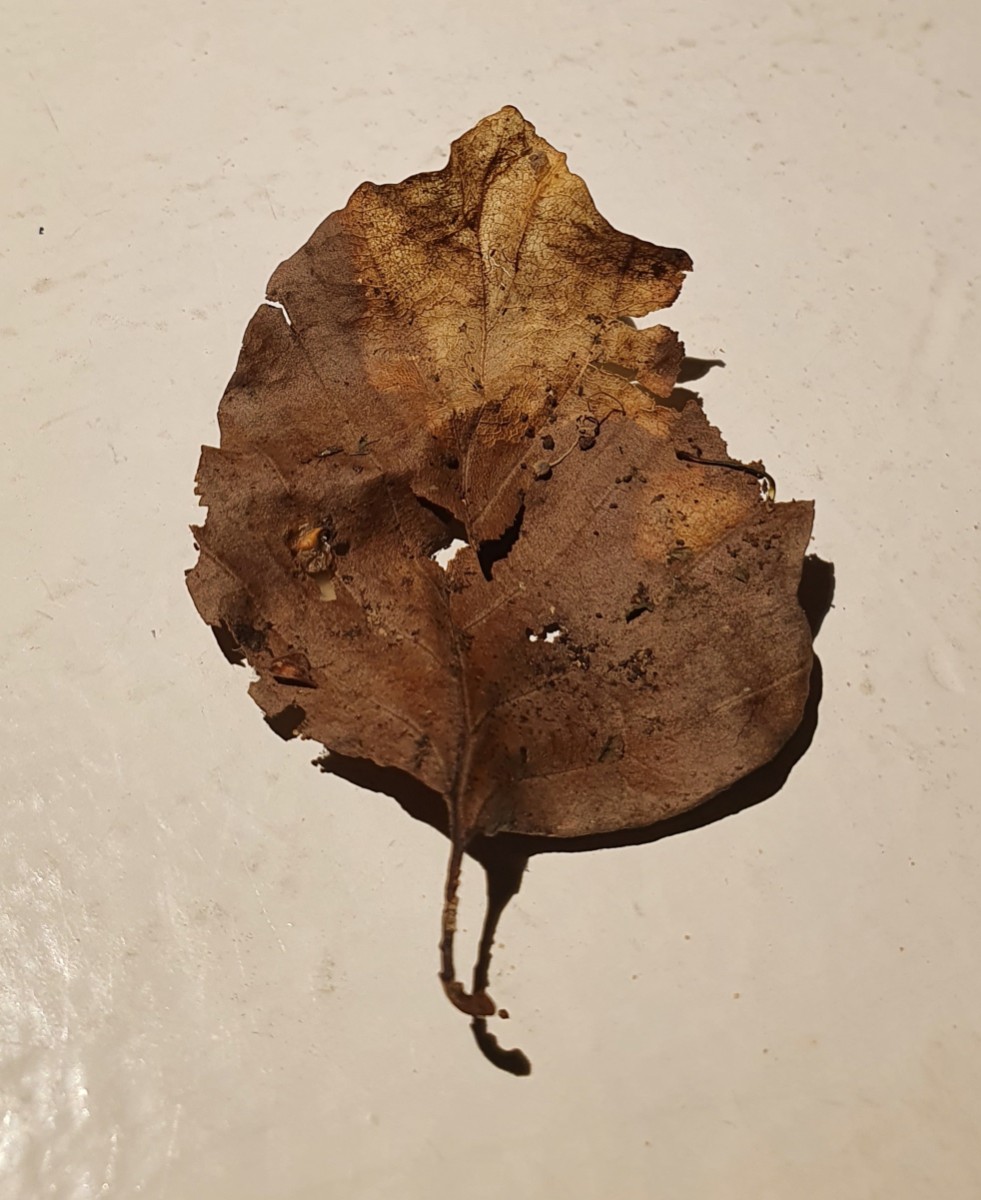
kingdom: Fungi
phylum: Basidiomycota
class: Agaricomycetes
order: Agaricales
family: Mycenaceae
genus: Mycena
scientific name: Mycena
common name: huesvamp
